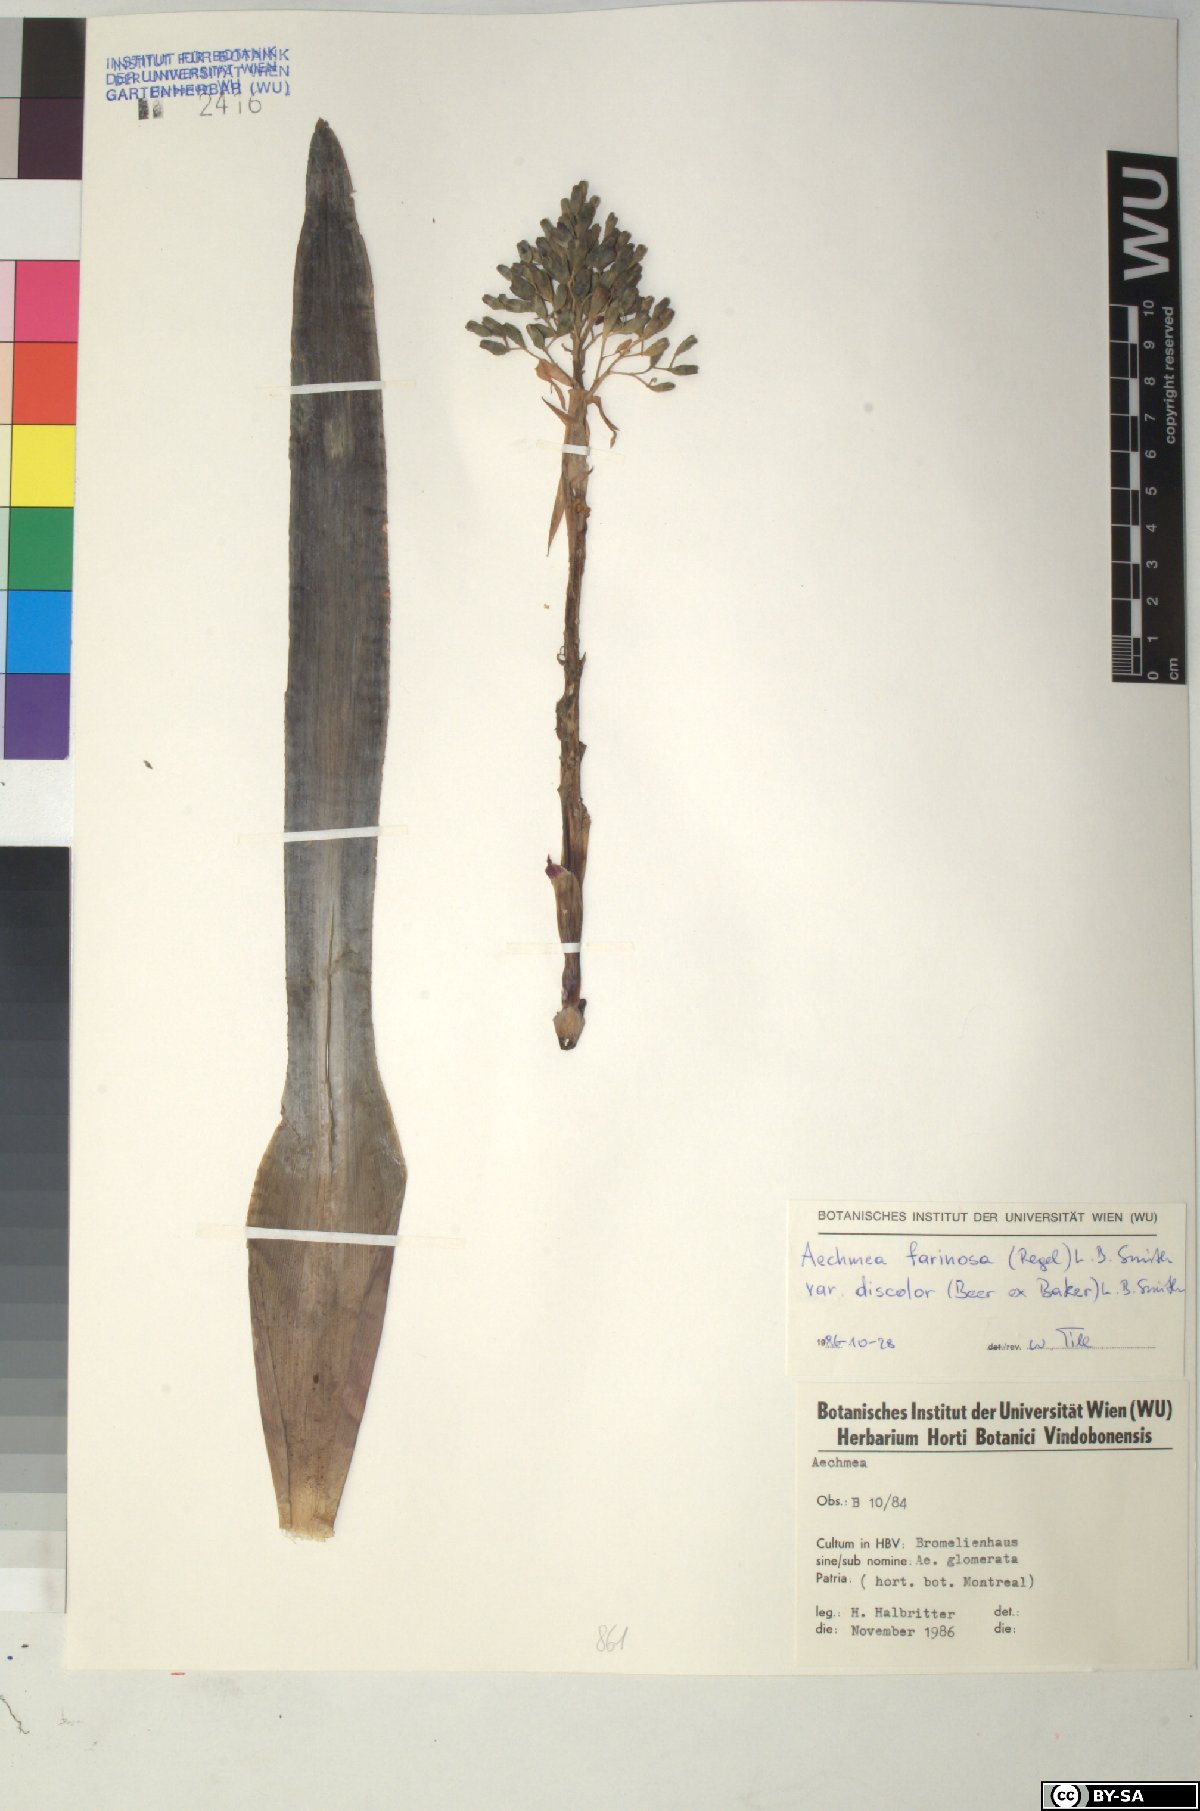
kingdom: Plantae
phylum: Tracheophyta
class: Liliopsida
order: Poales
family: Bromeliaceae
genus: Aechmea
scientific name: Aechmea farinosa
